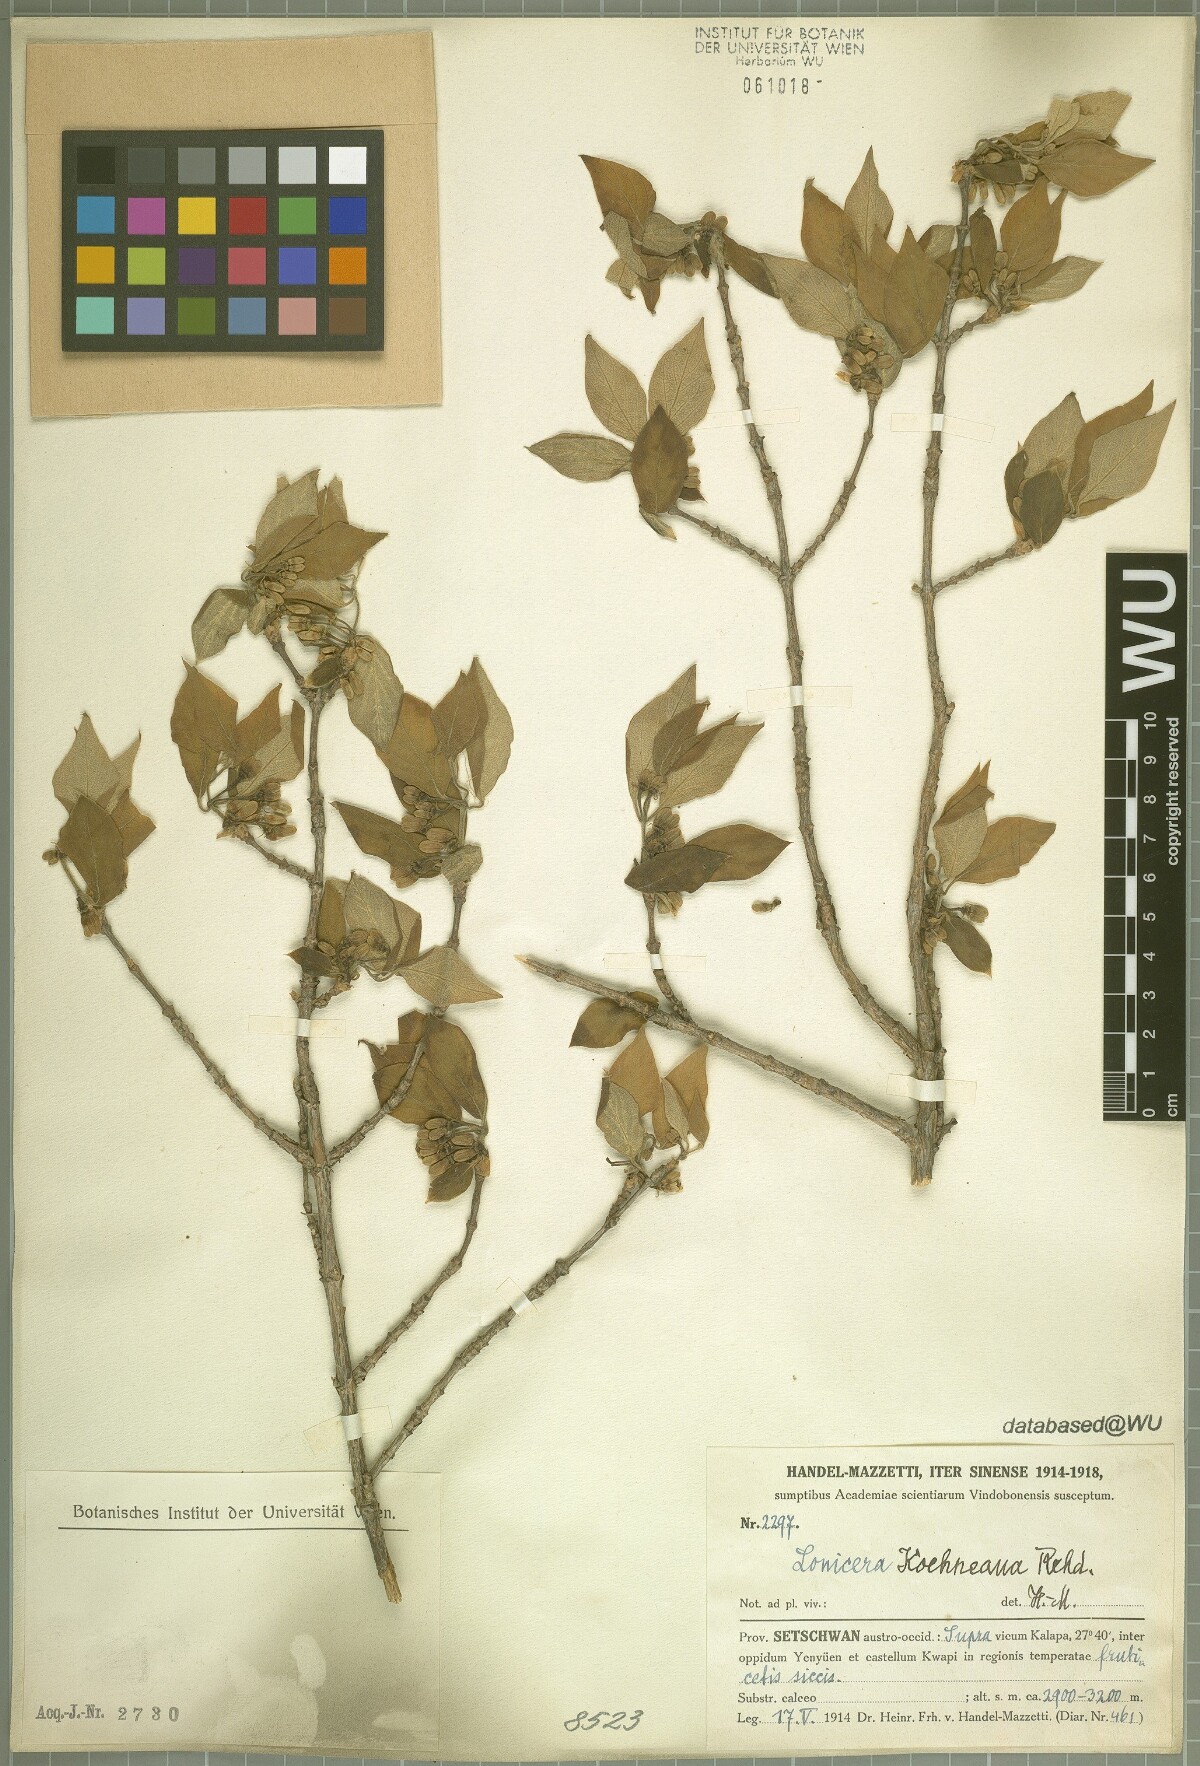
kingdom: Plantae
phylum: Tracheophyta
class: Magnoliopsida
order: Dipsacales
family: Caprifoliaceae
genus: Lonicera
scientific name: Lonicera chrysantha
